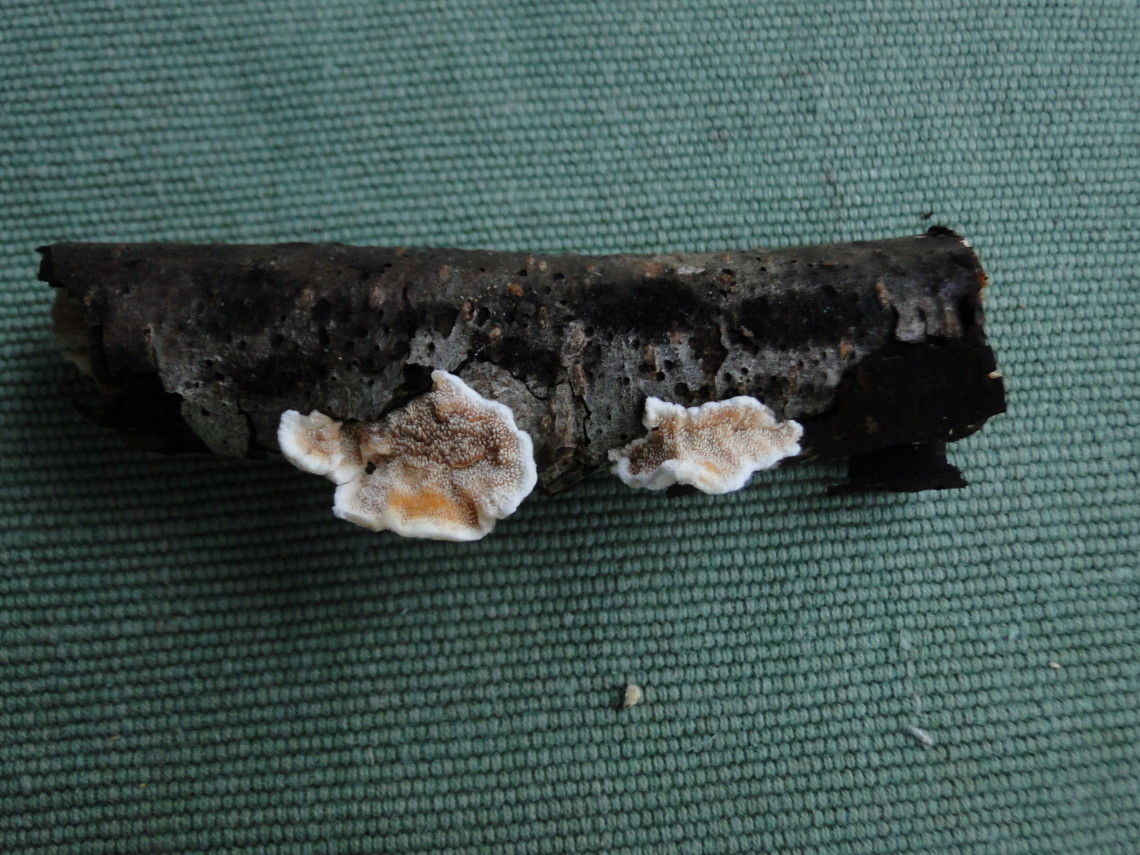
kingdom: Fungi
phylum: Basidiomycota
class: Agaricomycetes
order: Polyporales
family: Steccherinaceae
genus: Steccherinum
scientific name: Steccherinum ochraceum
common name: almindelig skønpig
